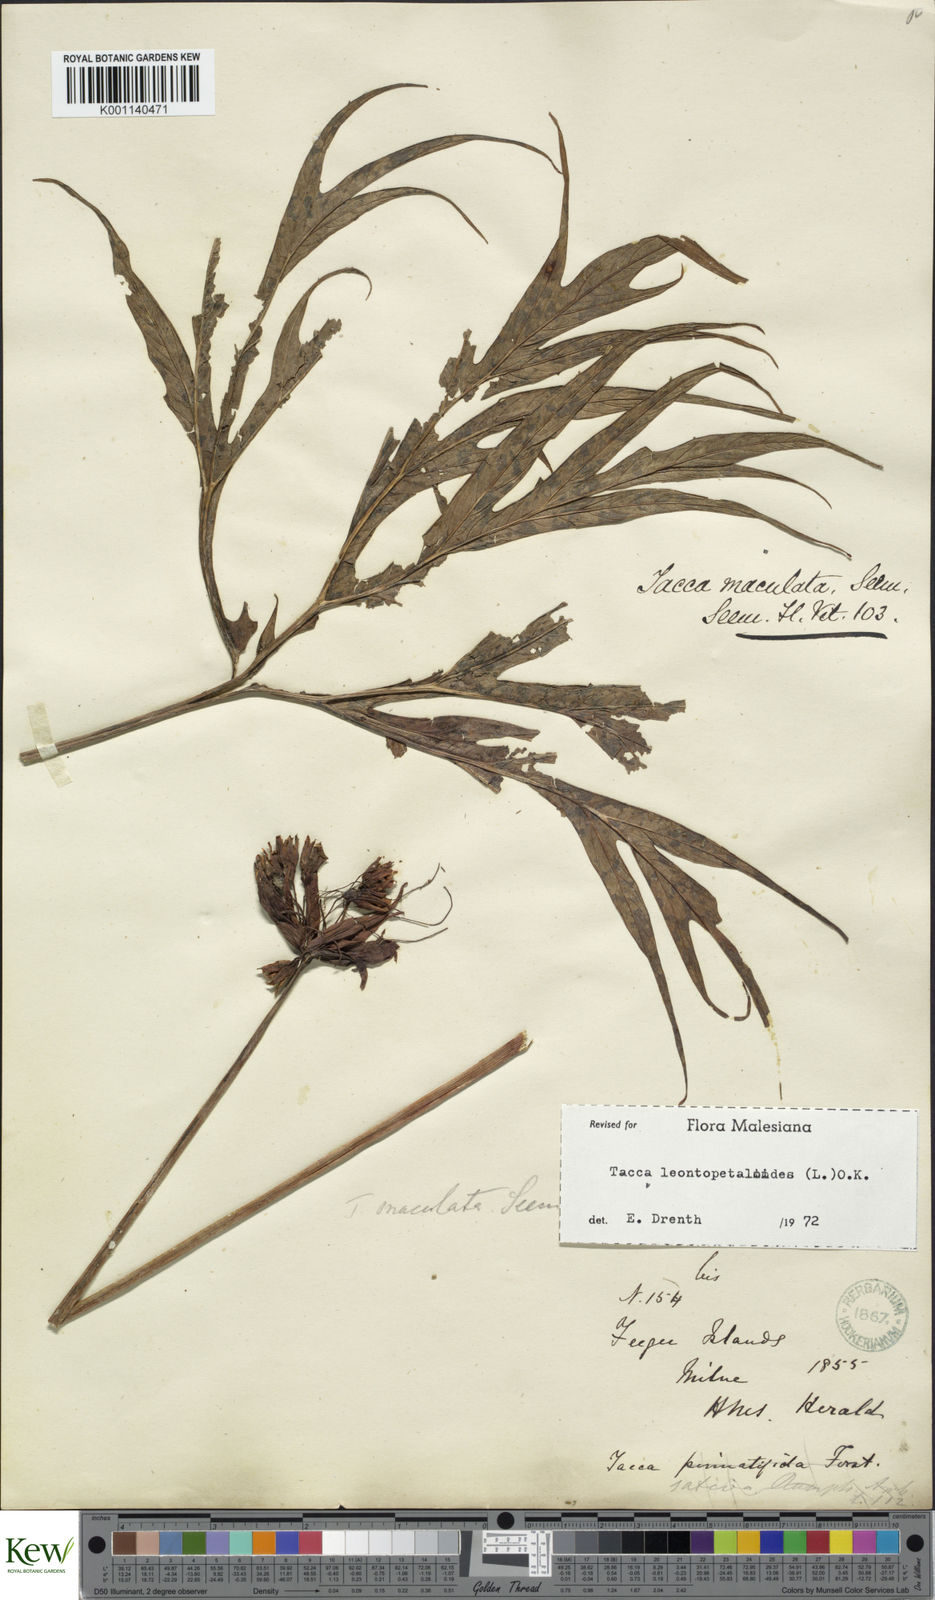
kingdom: Plantae
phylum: Tracheophyta
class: Liliopsida
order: Dioscoreales
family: Dioscoreaceae
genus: Tacca
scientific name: Tacca leontopetaloides
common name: Arrowroot
